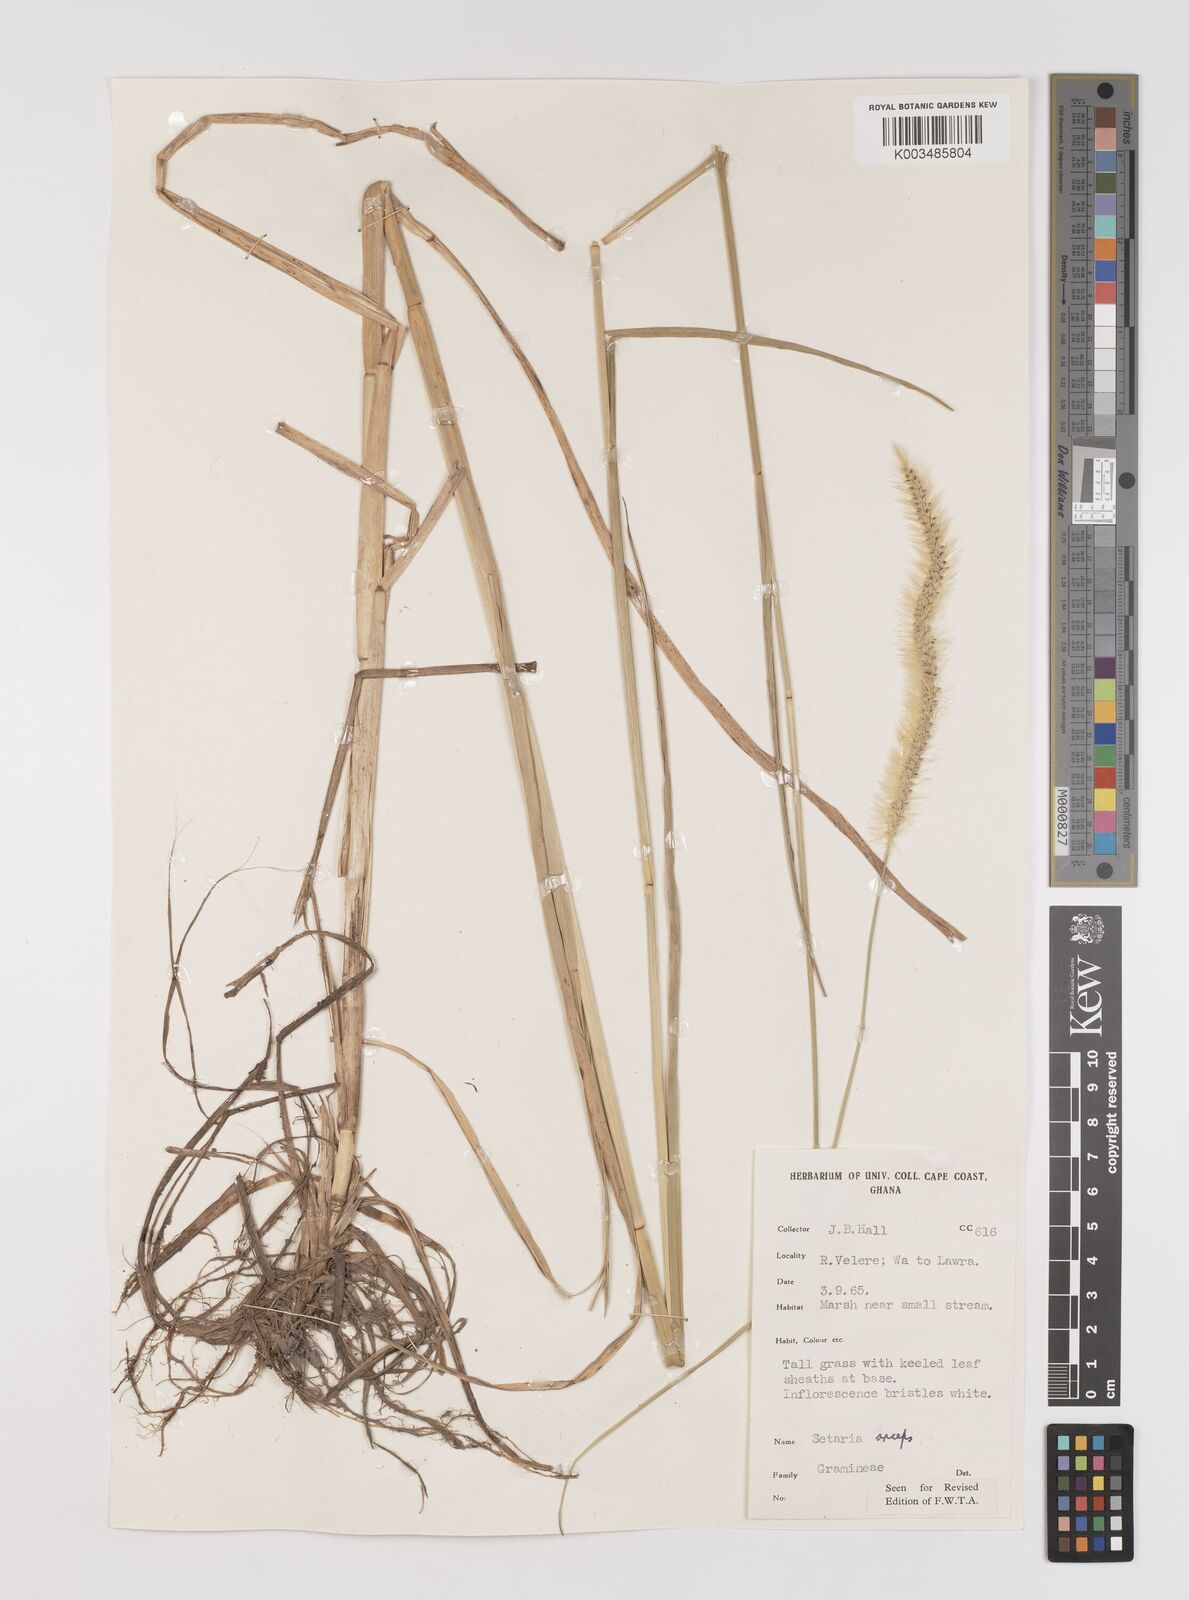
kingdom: Plantae
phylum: Tracheophyta
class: Liliopsida
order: Poales
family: Poaceae
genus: Setaria
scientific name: Setaria sphacelata
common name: African bristlegrass
